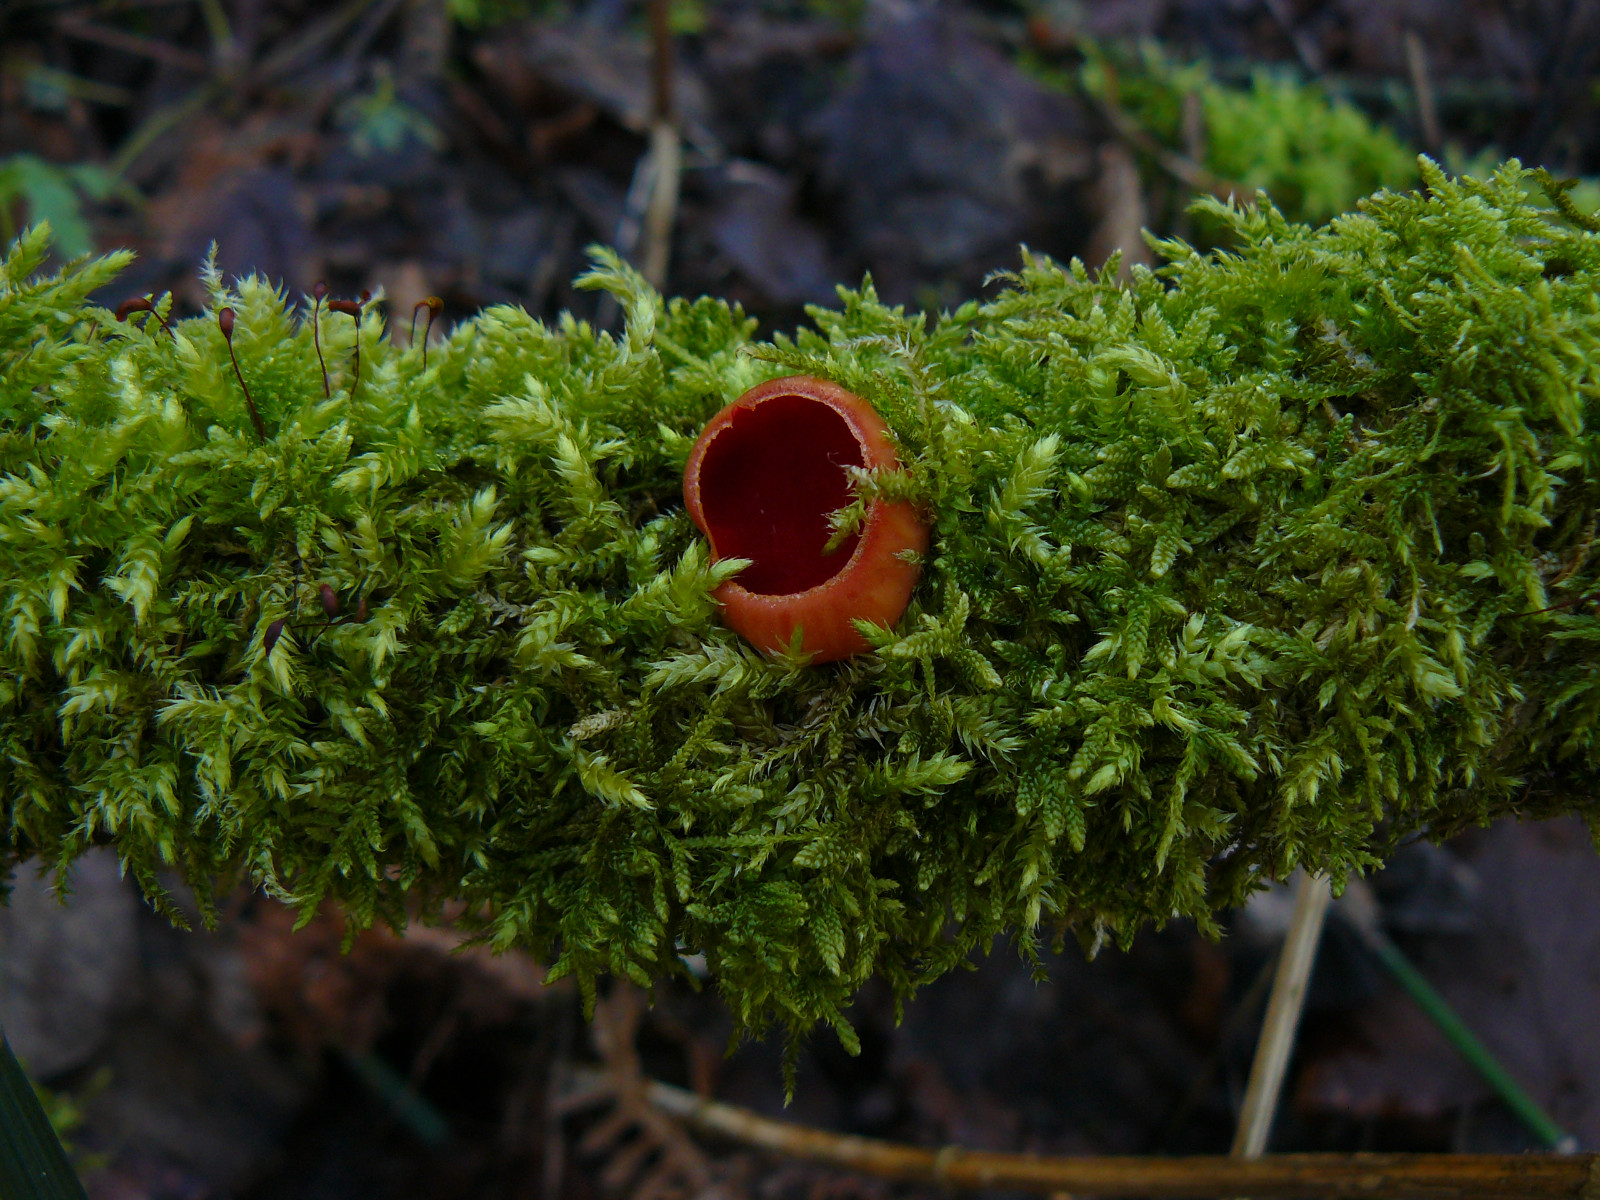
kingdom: Fungi
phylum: Ascomycota
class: Pezizomycetes
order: Pezizales
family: Sarcoscyphaceae
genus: Sarcoscypha
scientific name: Sarcoscypha austriaca
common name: krølhåret pragtbæger
